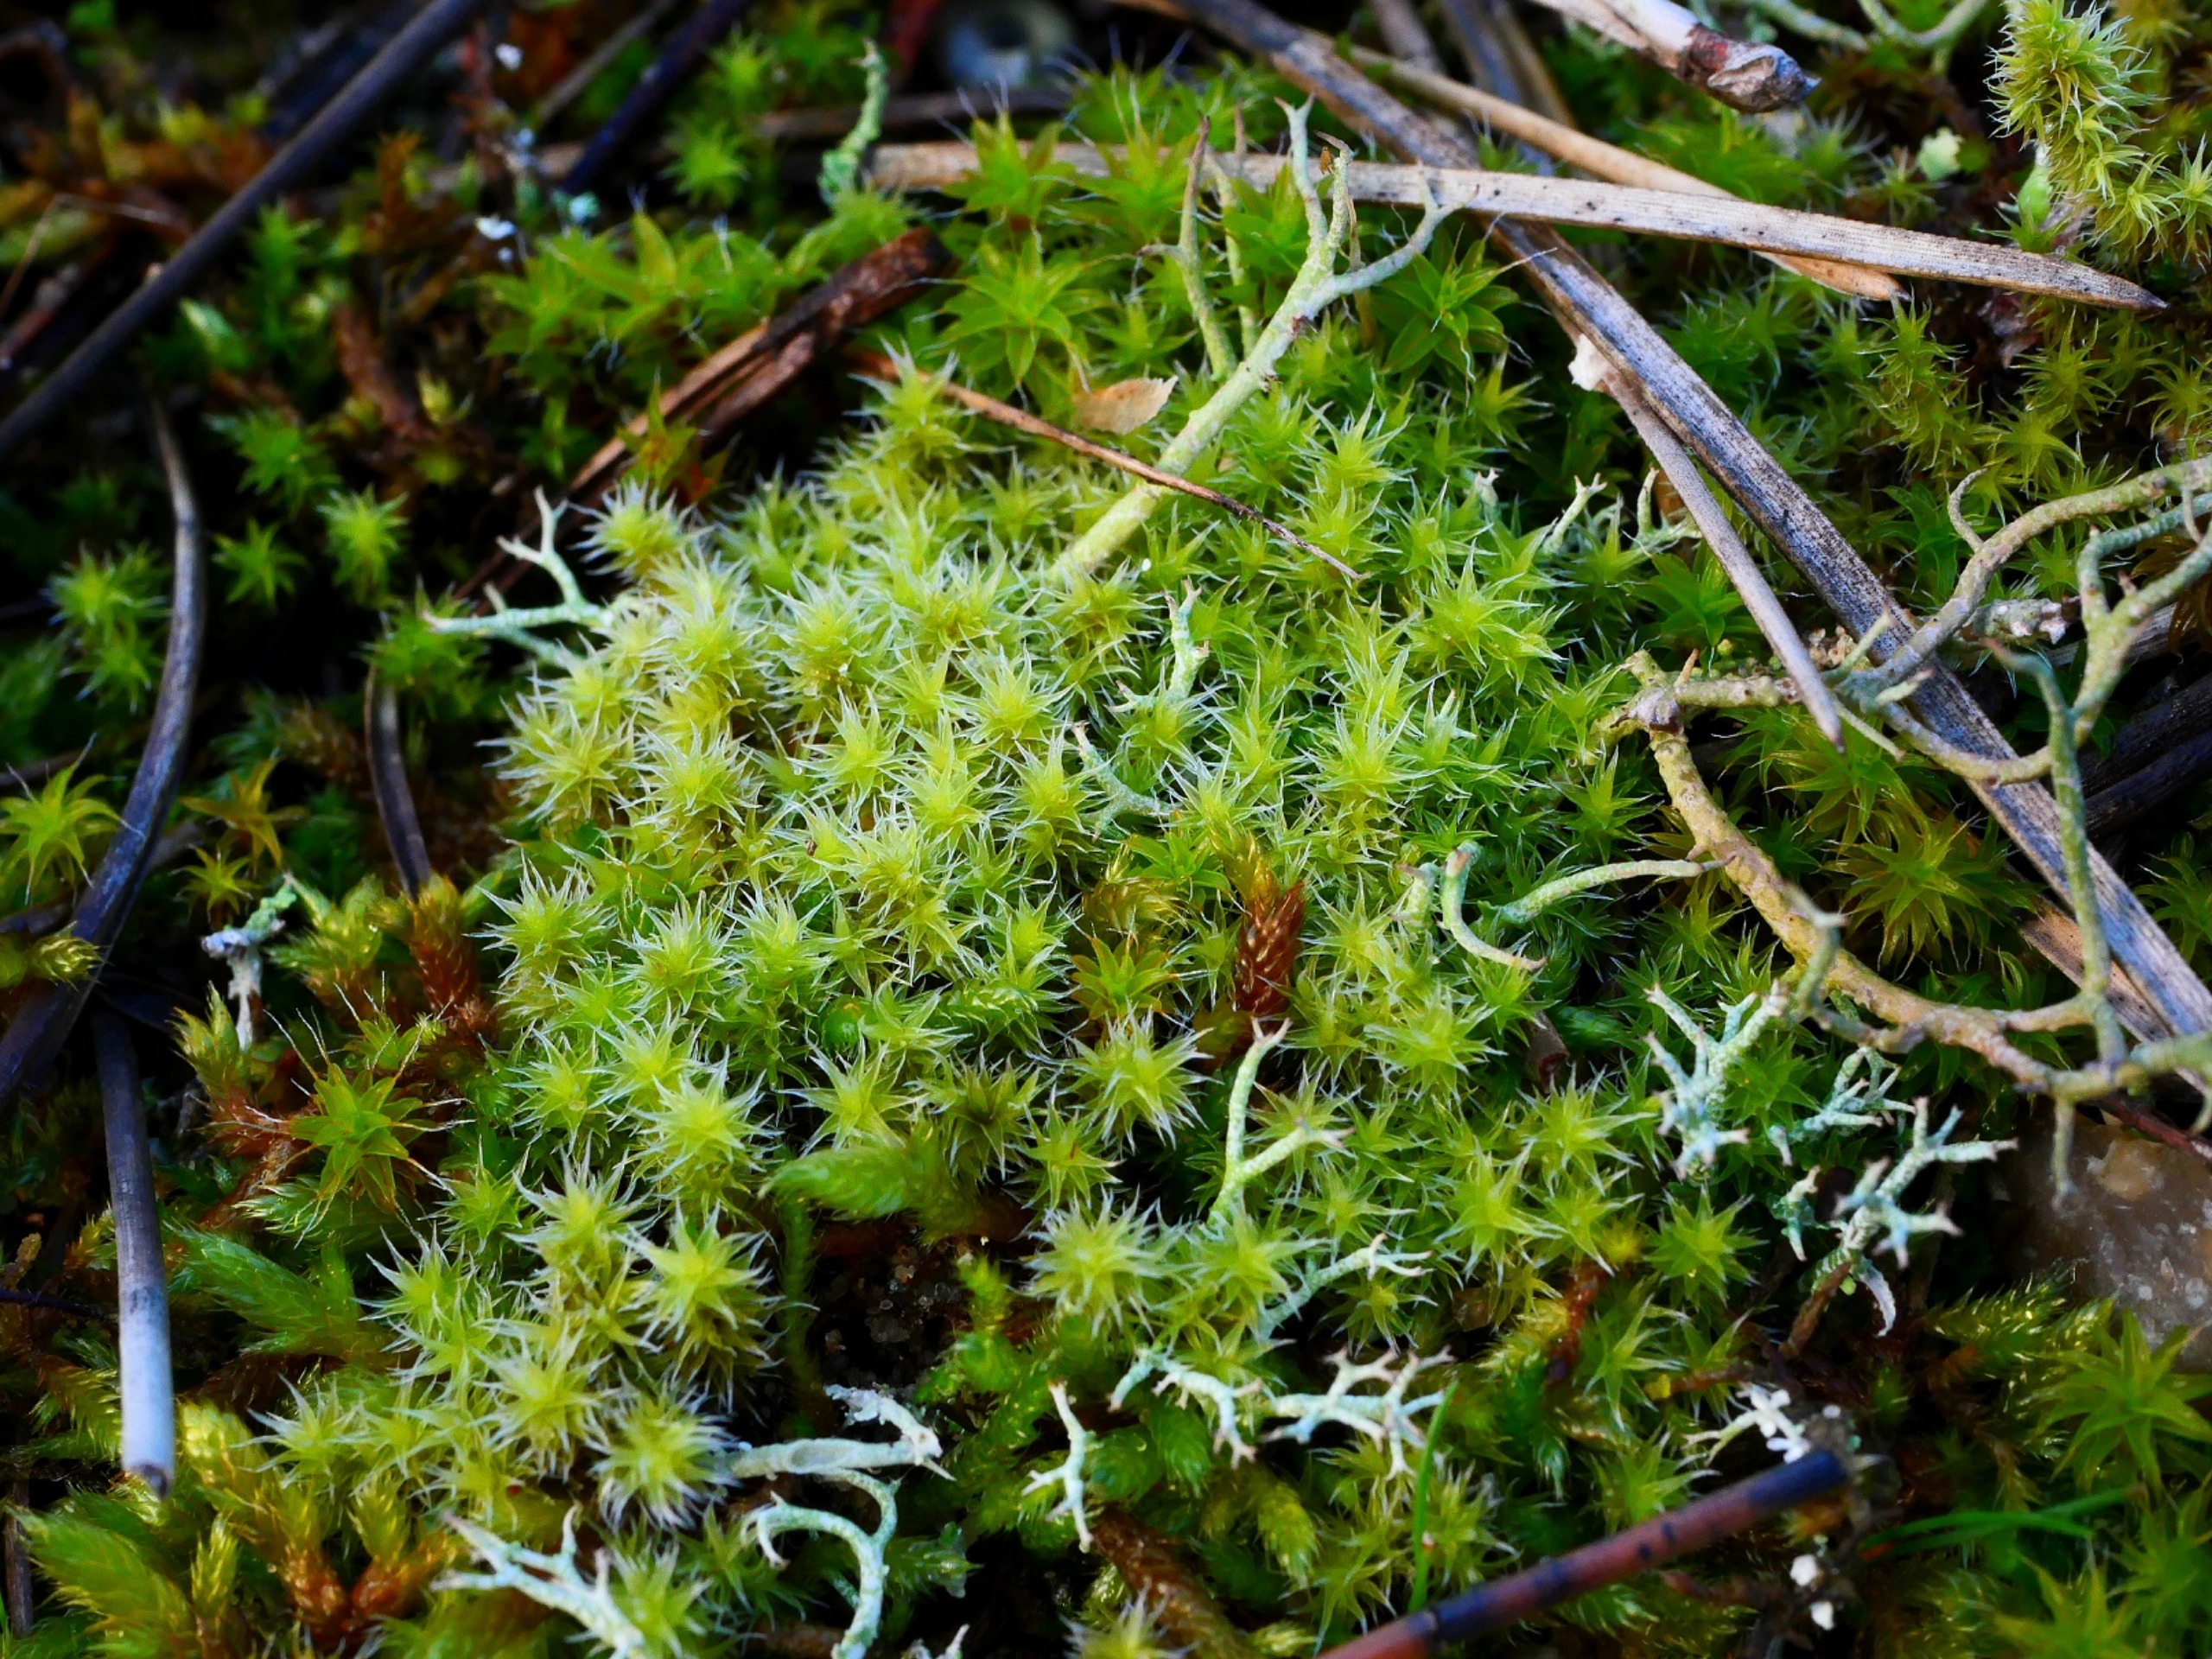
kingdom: Plantae
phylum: Bryophyta
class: Bryopsida
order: Grimmiales
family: Grimmiaceae
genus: Niphotrichum
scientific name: Niphotrichum canescens
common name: Sand-børstemos
